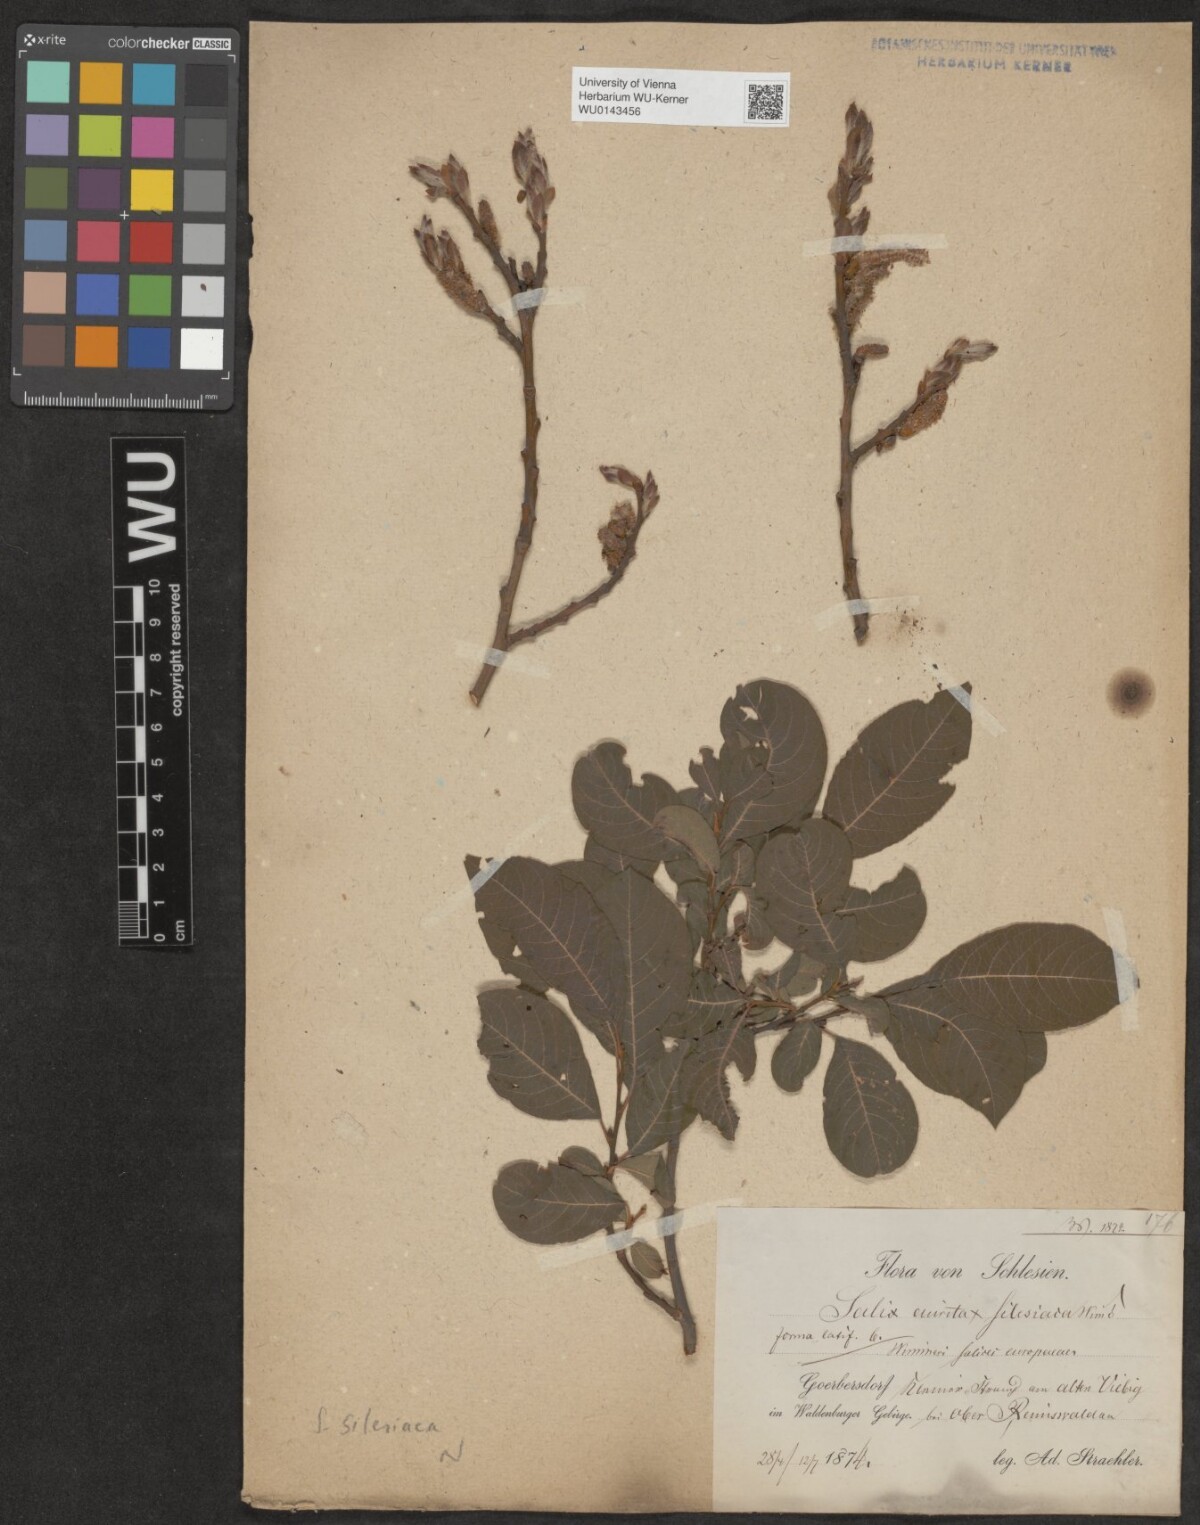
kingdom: Plantae
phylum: Tracheophyta
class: Magnoliopsida
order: Malpighiales
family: Salicaceae
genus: Salix
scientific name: Salix silesiaca
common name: Silesian willow
